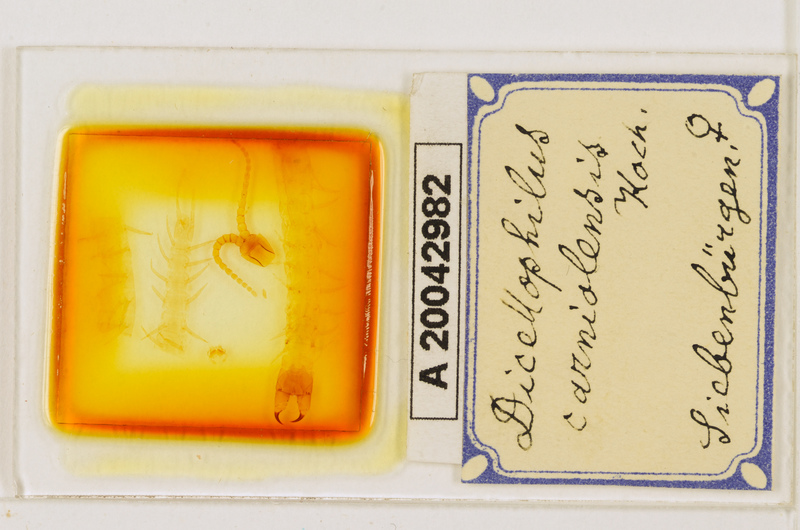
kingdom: Animalia
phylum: Arthropoda
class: Chilopoda
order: Geophilomorpha
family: Mecistocephalidae
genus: Dicellophilus
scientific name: Dicellophilus carniolensis
